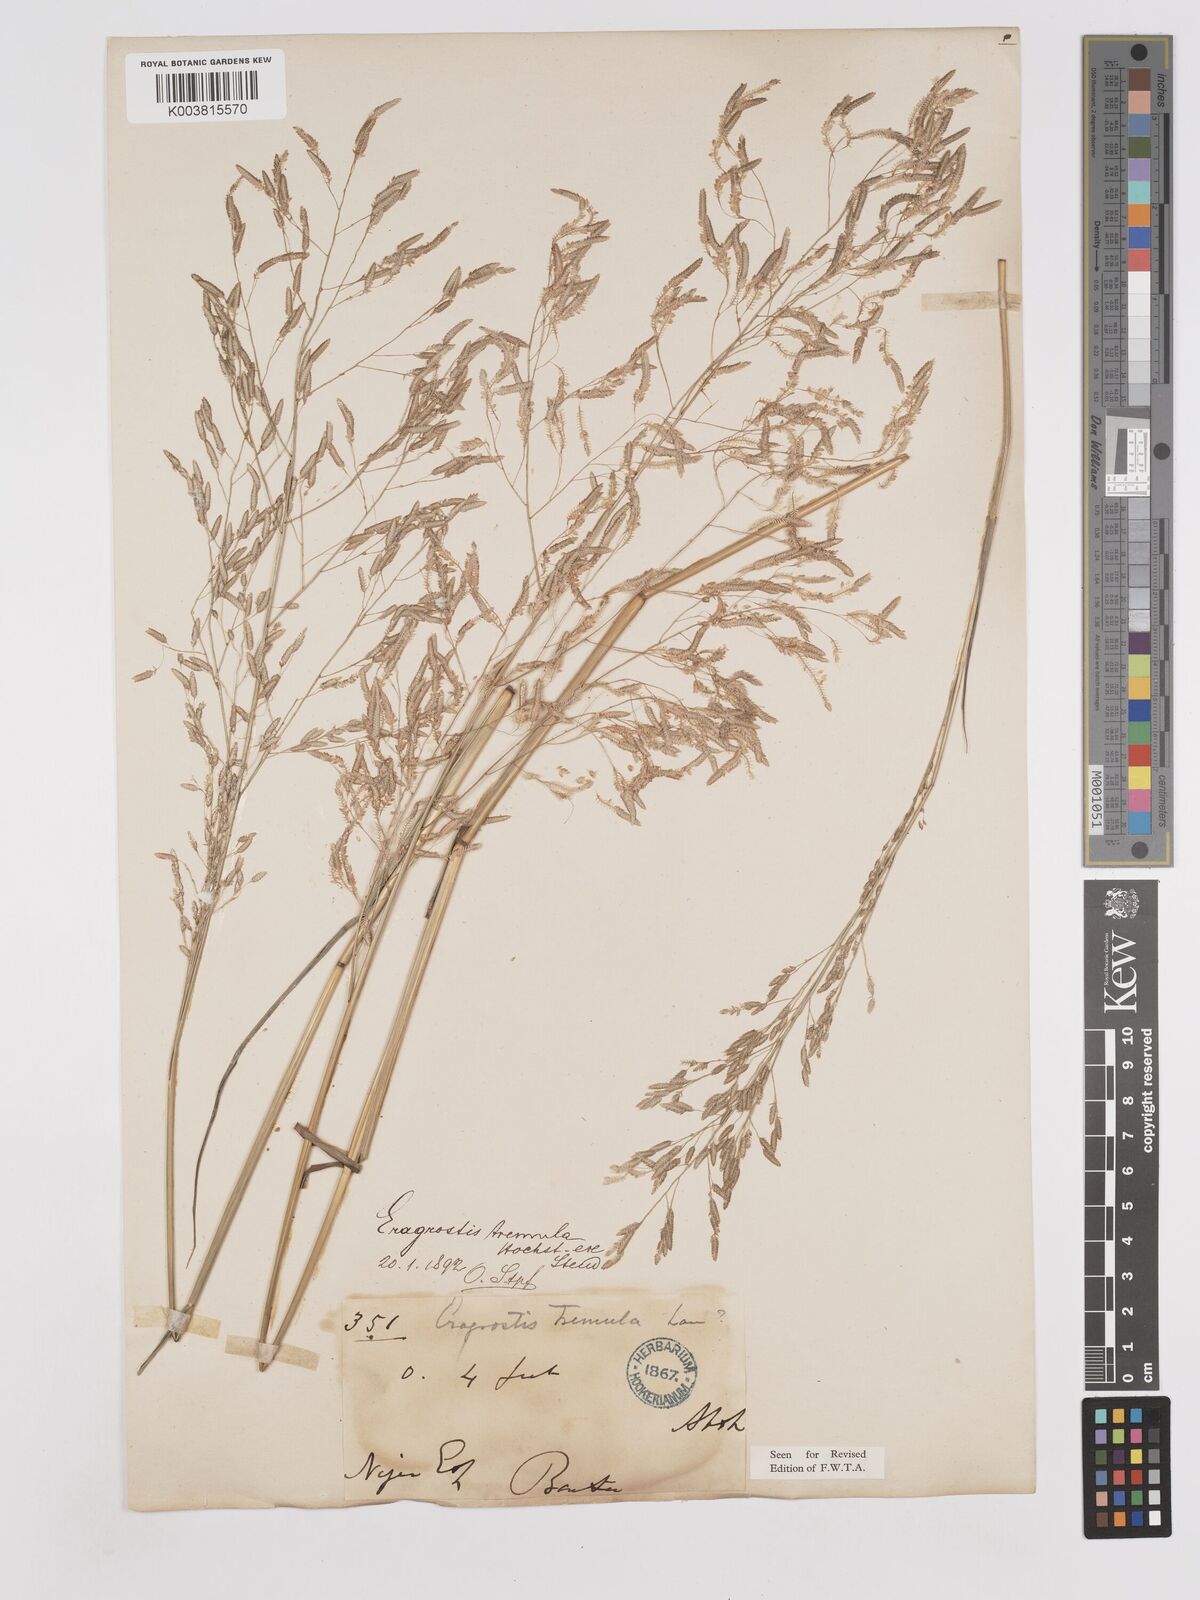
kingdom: Plantae
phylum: Tracheophyta
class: Liliopsida
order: Poales
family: Poaceae
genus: Eragrostis
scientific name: Eragrostis tremula
